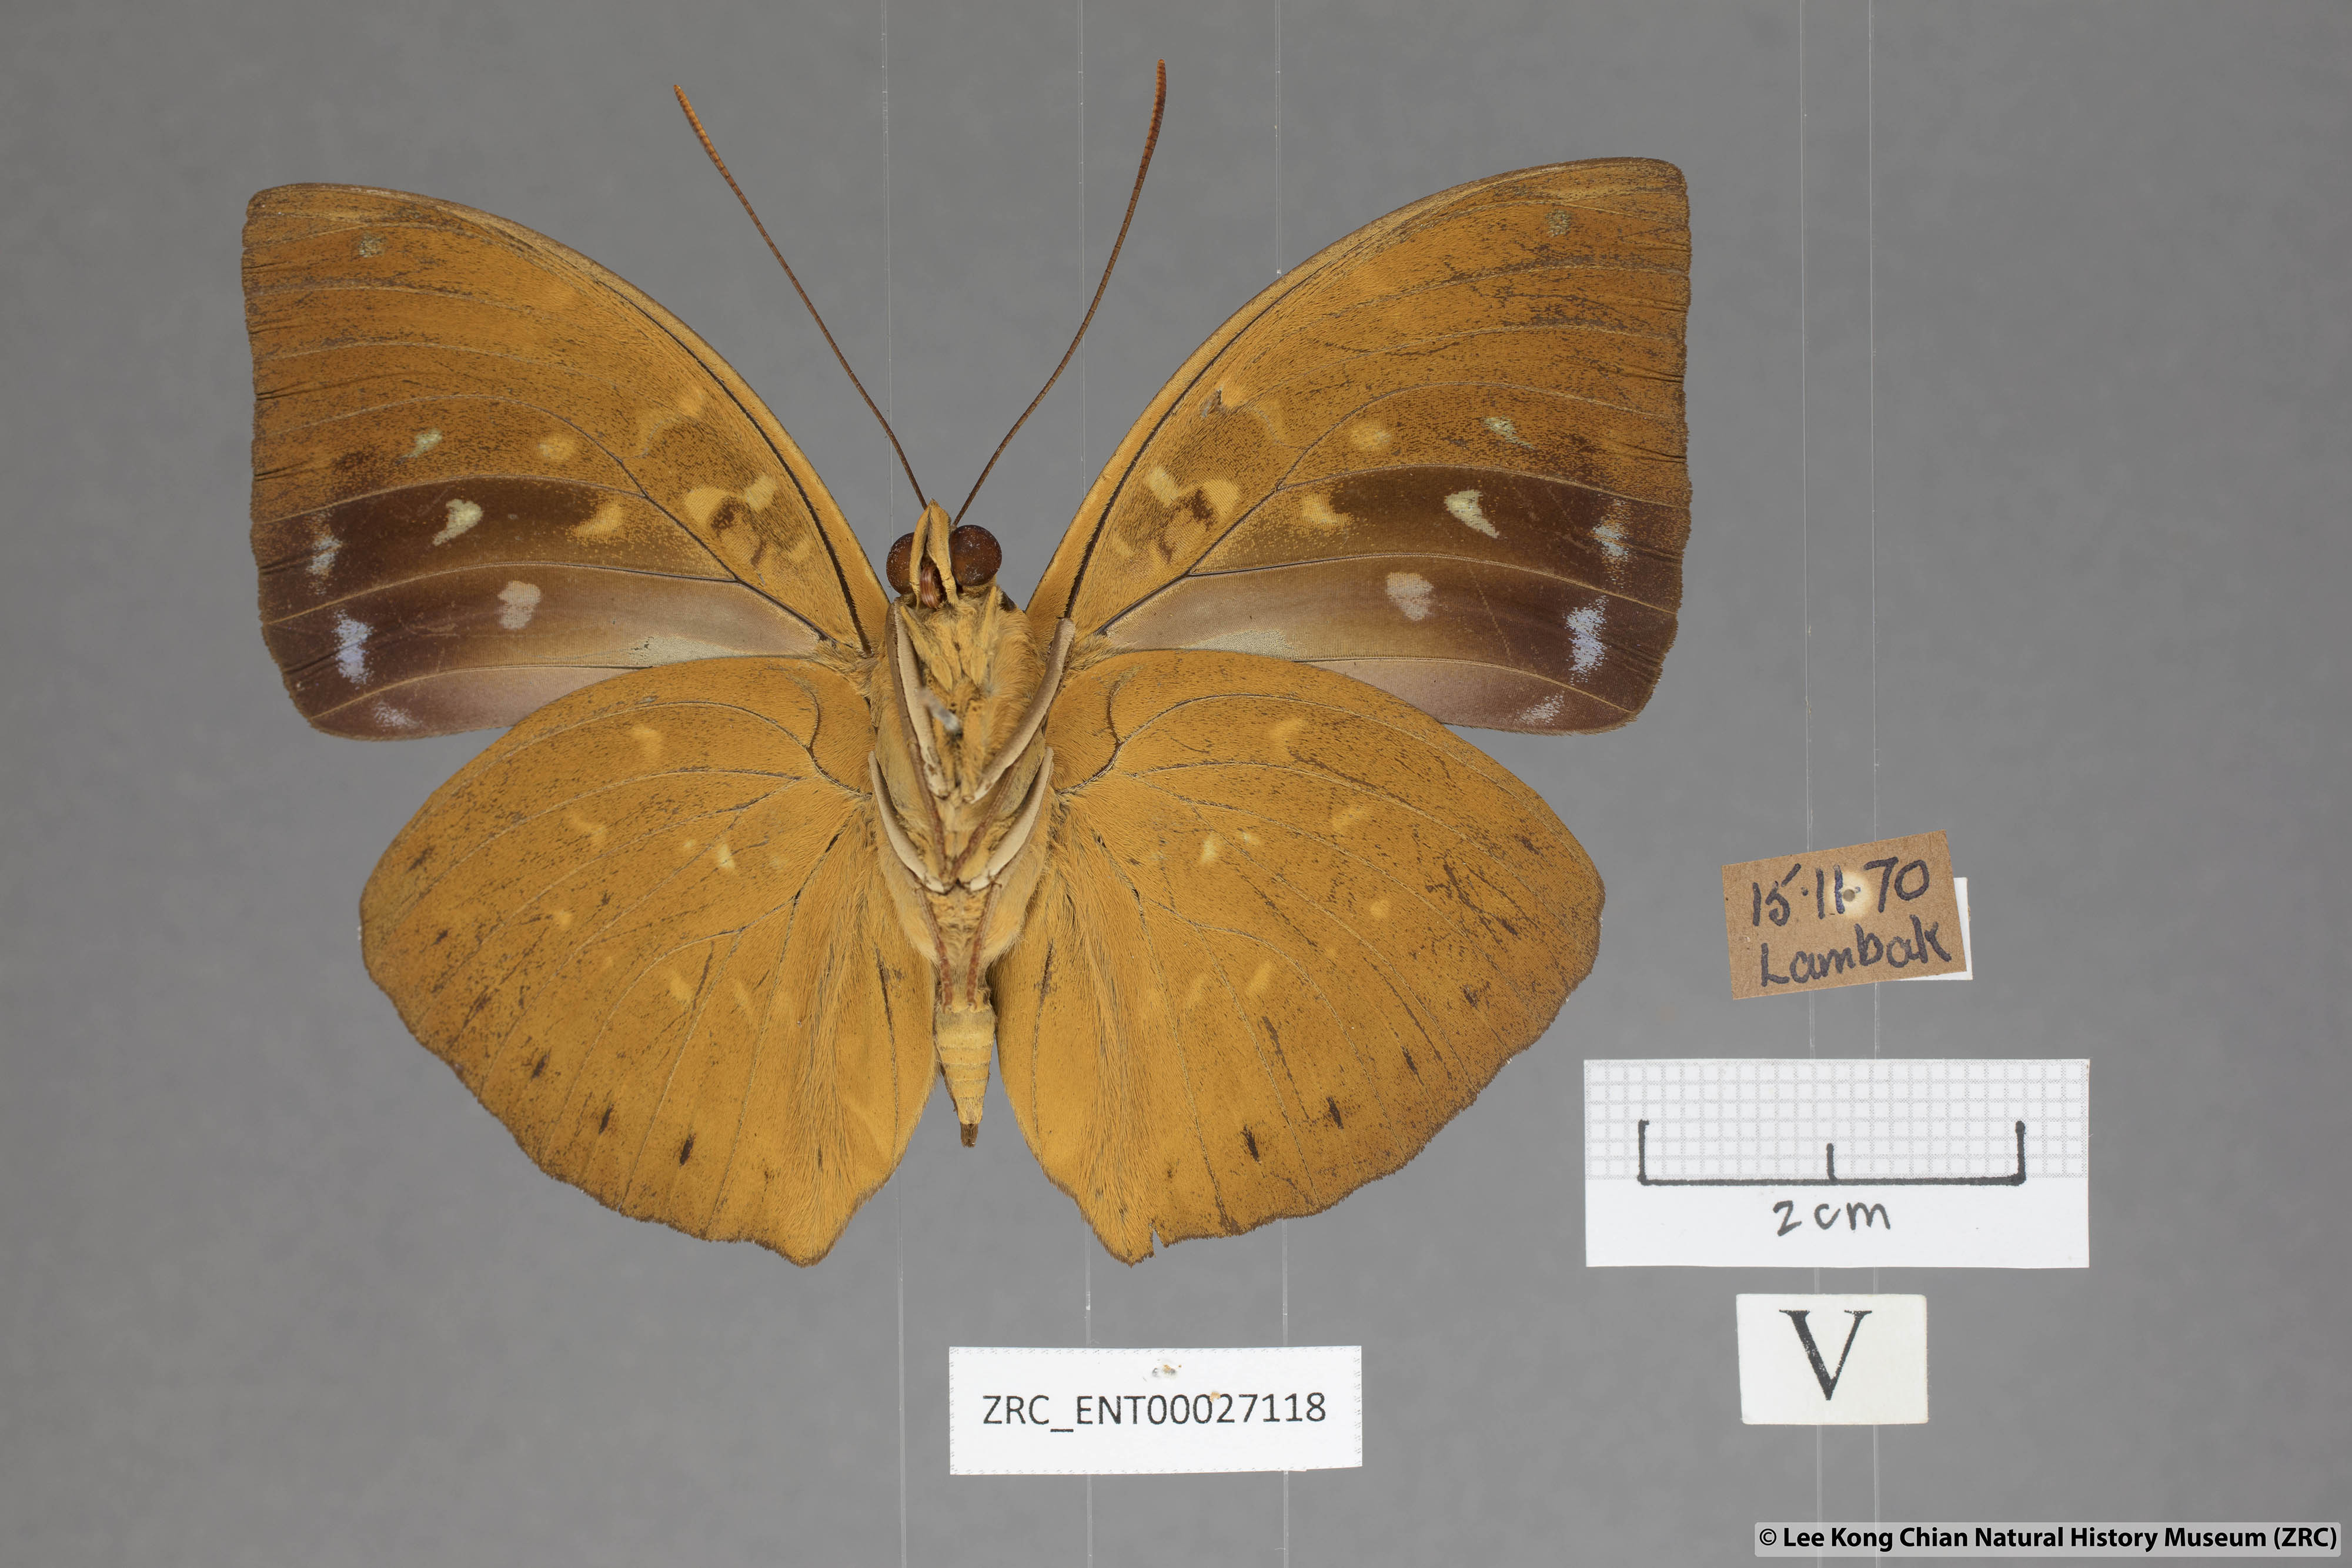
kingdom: Animalia
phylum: Arthropoda
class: Insecta
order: Lepidoptera
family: Nymphalidae
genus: Lexias
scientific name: Lexias pardalis
